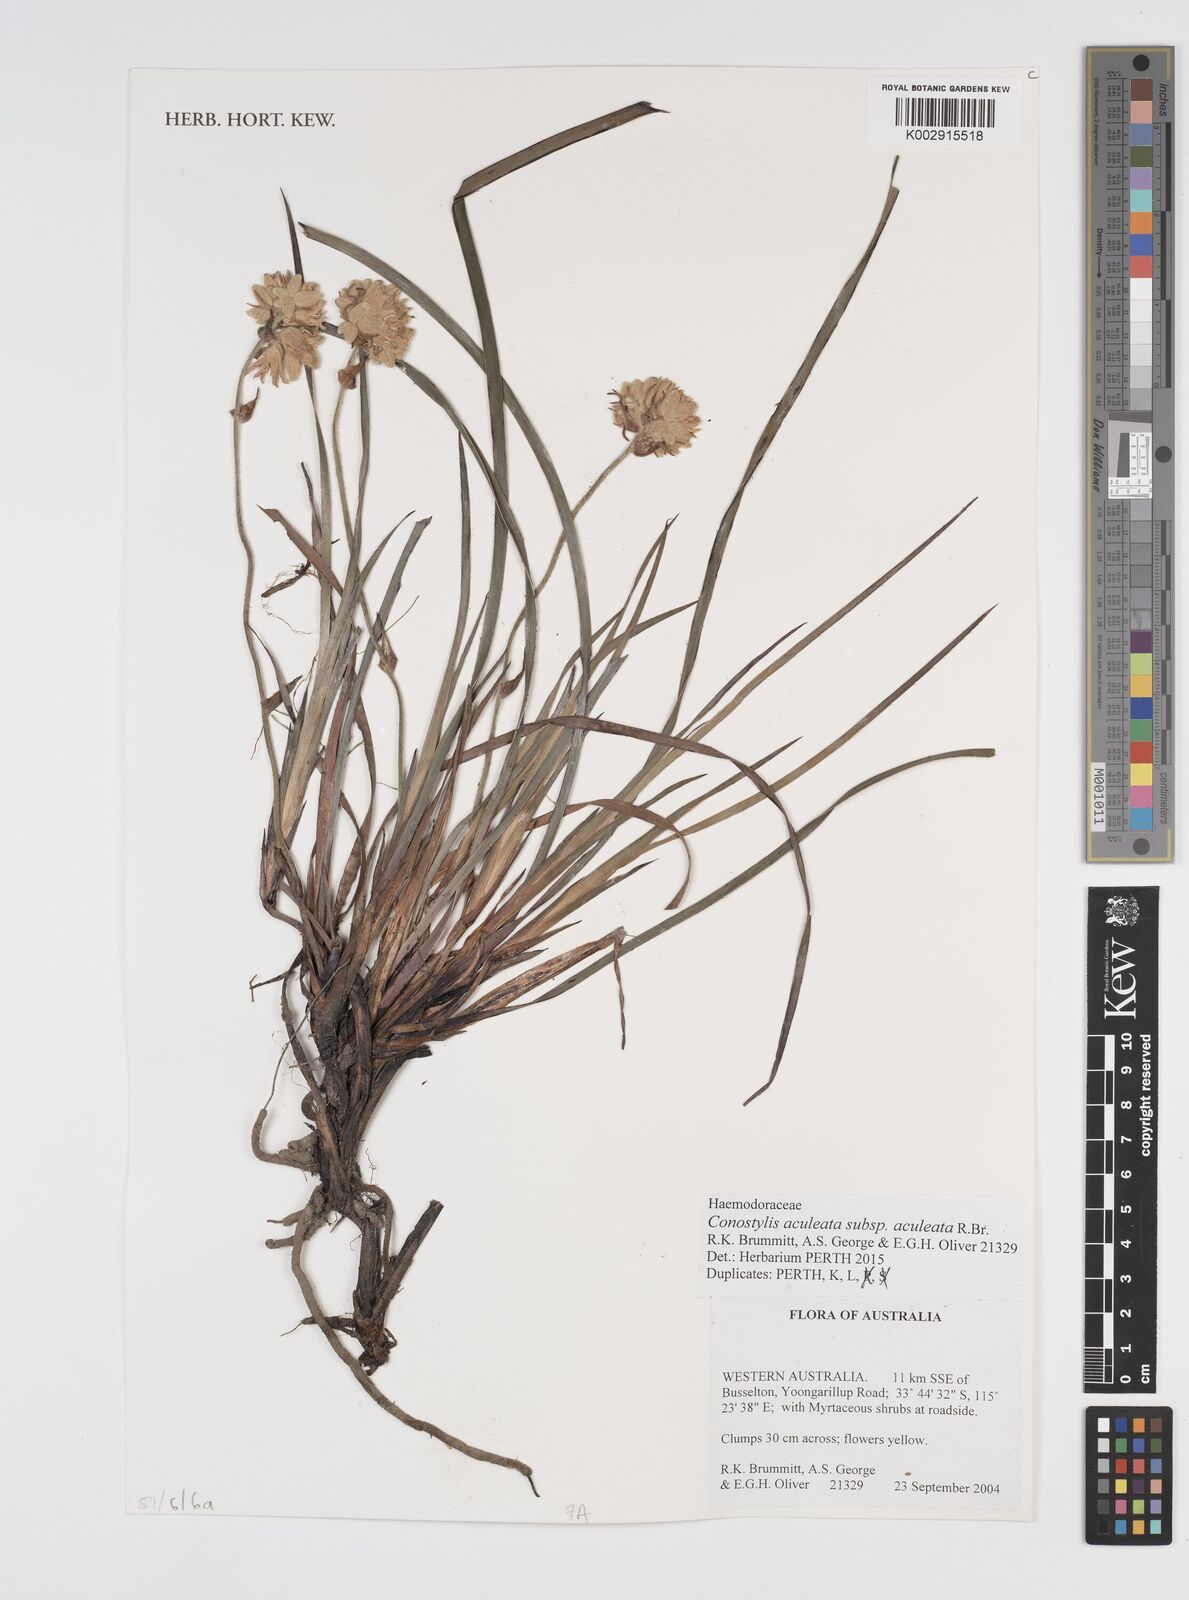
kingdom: Plantae
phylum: Tracheophyta
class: Liliopsida
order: Commelinales
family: Haemodoraceae
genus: Conostylis
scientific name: Conostylis aculeata
